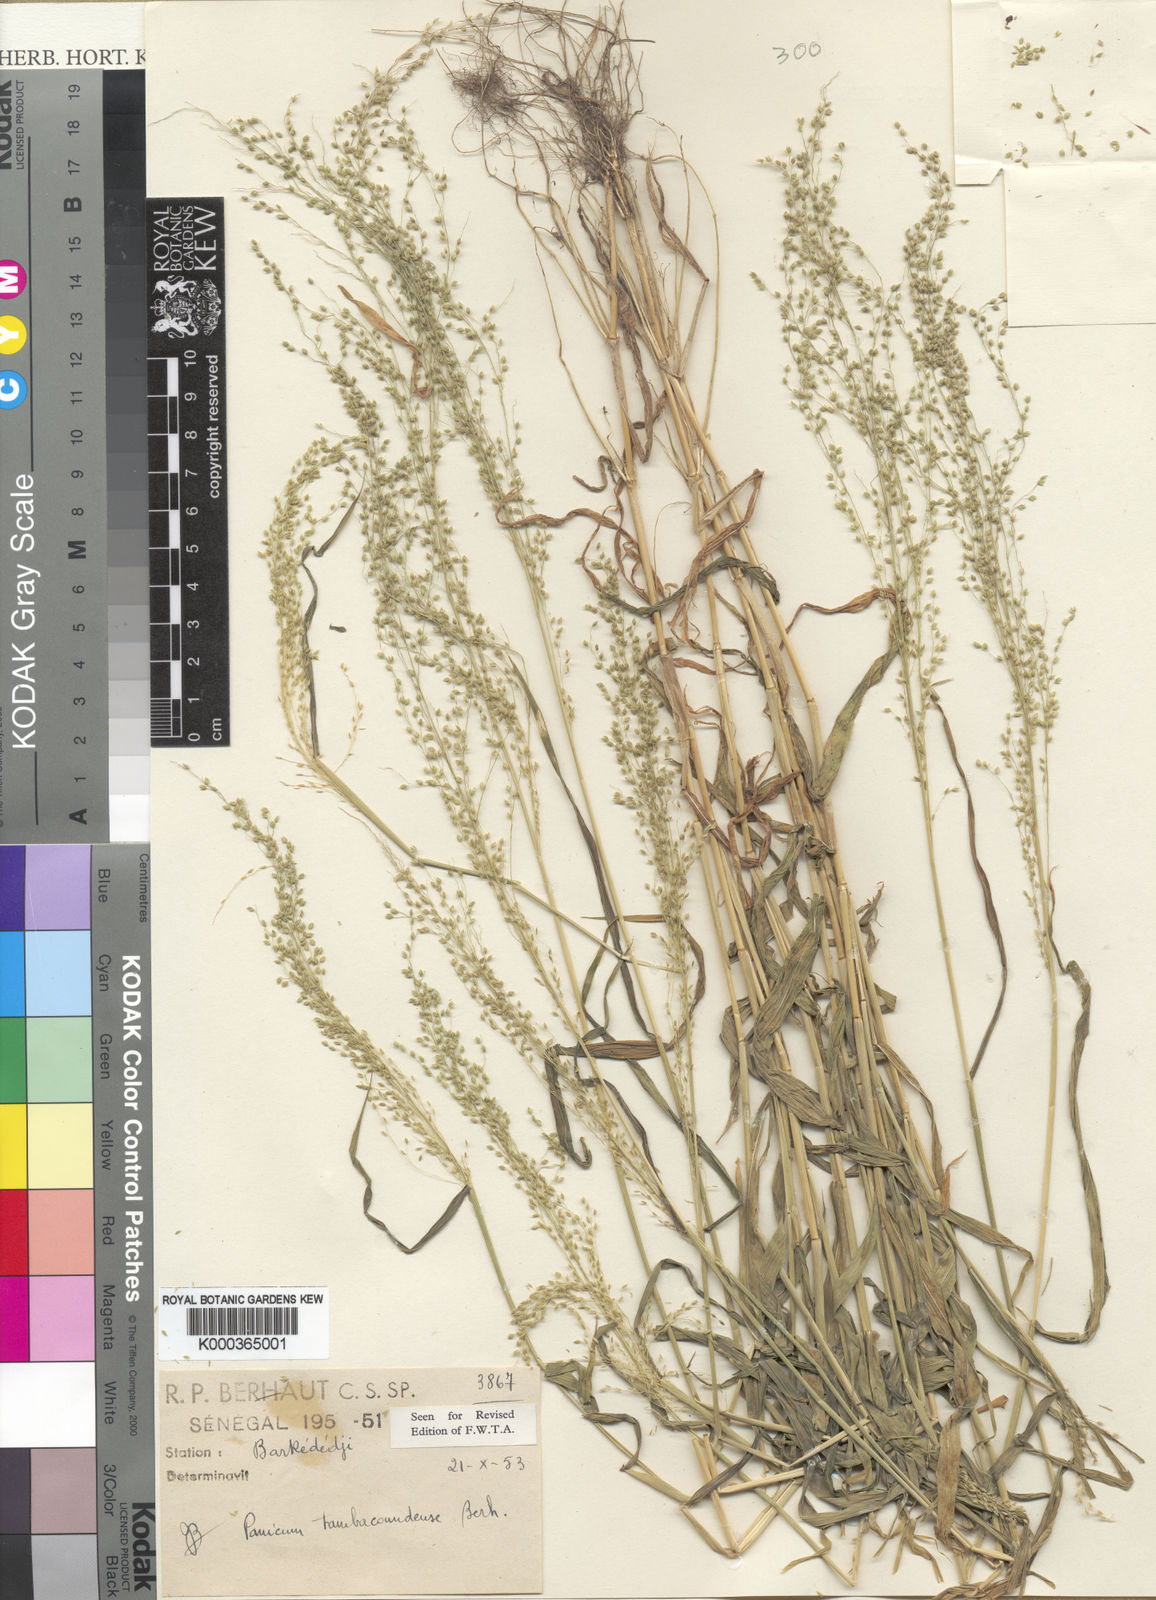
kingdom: Plantae
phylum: Tracheophyta
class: Liliopsida
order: Poales
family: Poaceae
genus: Trichanthecium
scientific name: Trichanthecium gracilicaule
